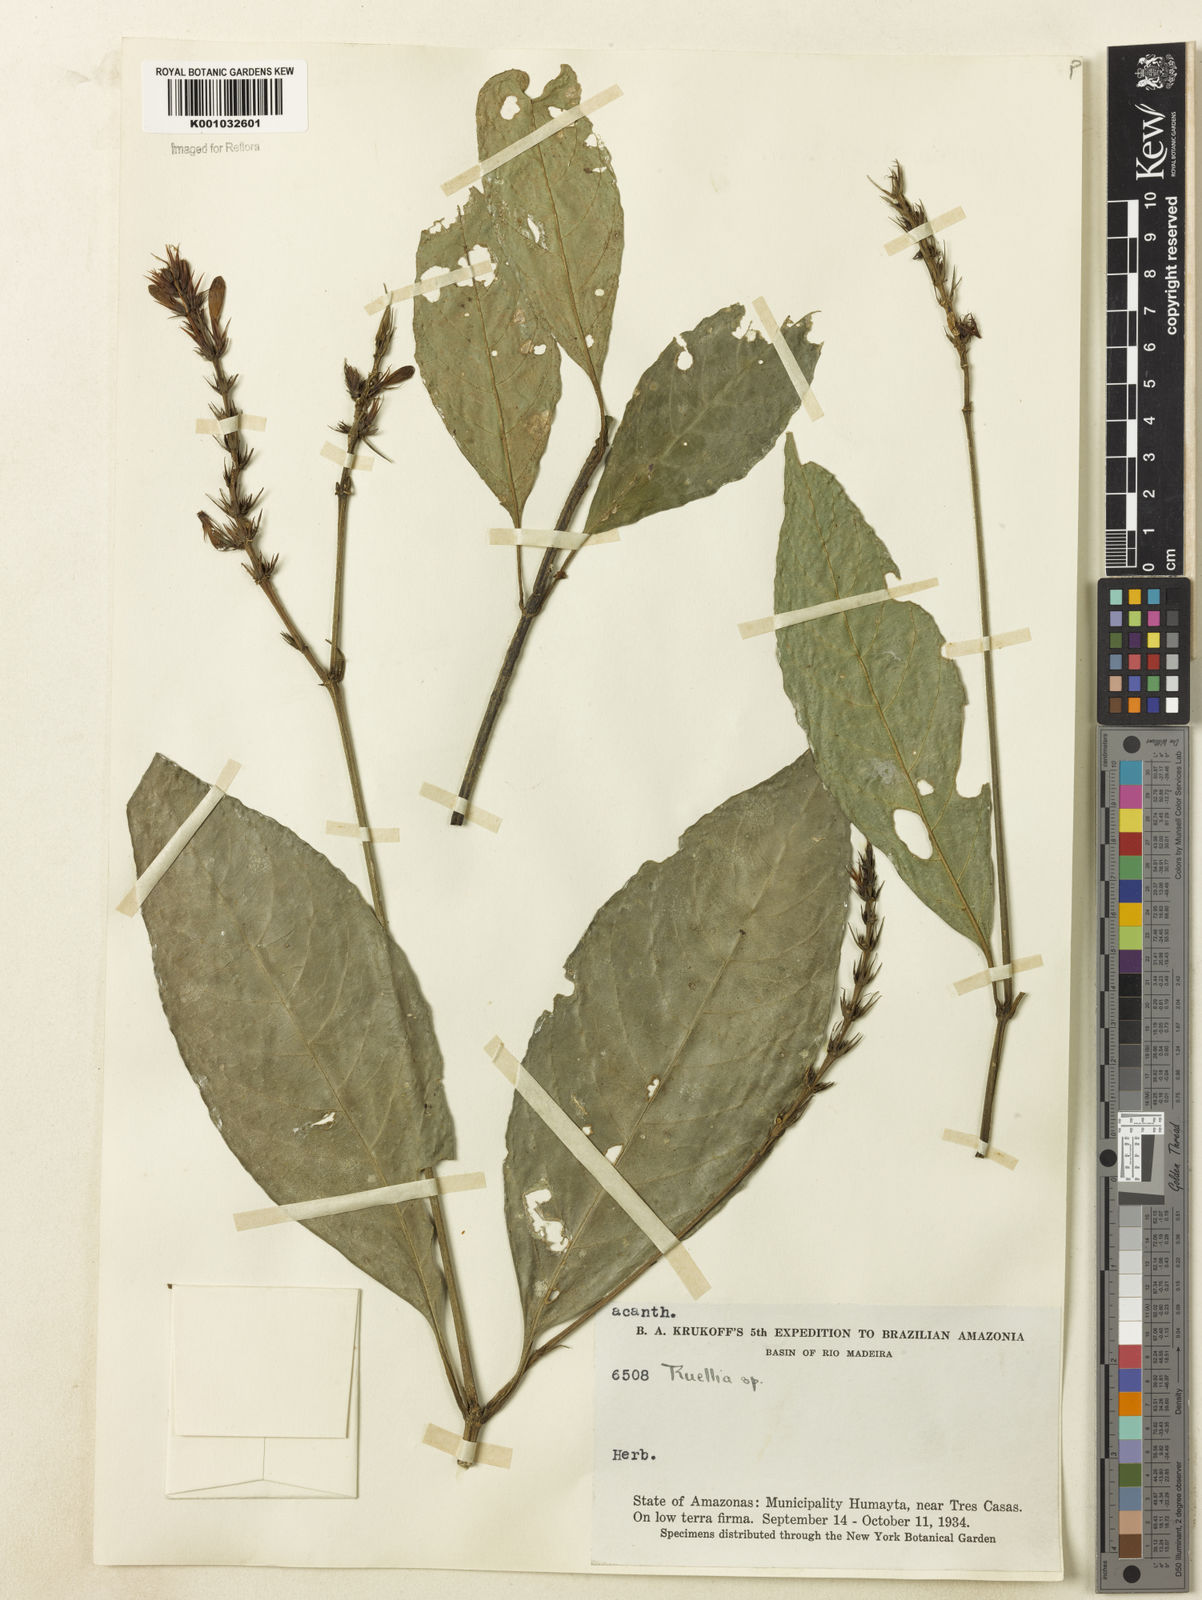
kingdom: Plantae
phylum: Tracheophyta
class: Magnoliopsida
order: Lamiales
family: Acanthaceae
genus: Ruellia
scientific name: Ruellia proxima
